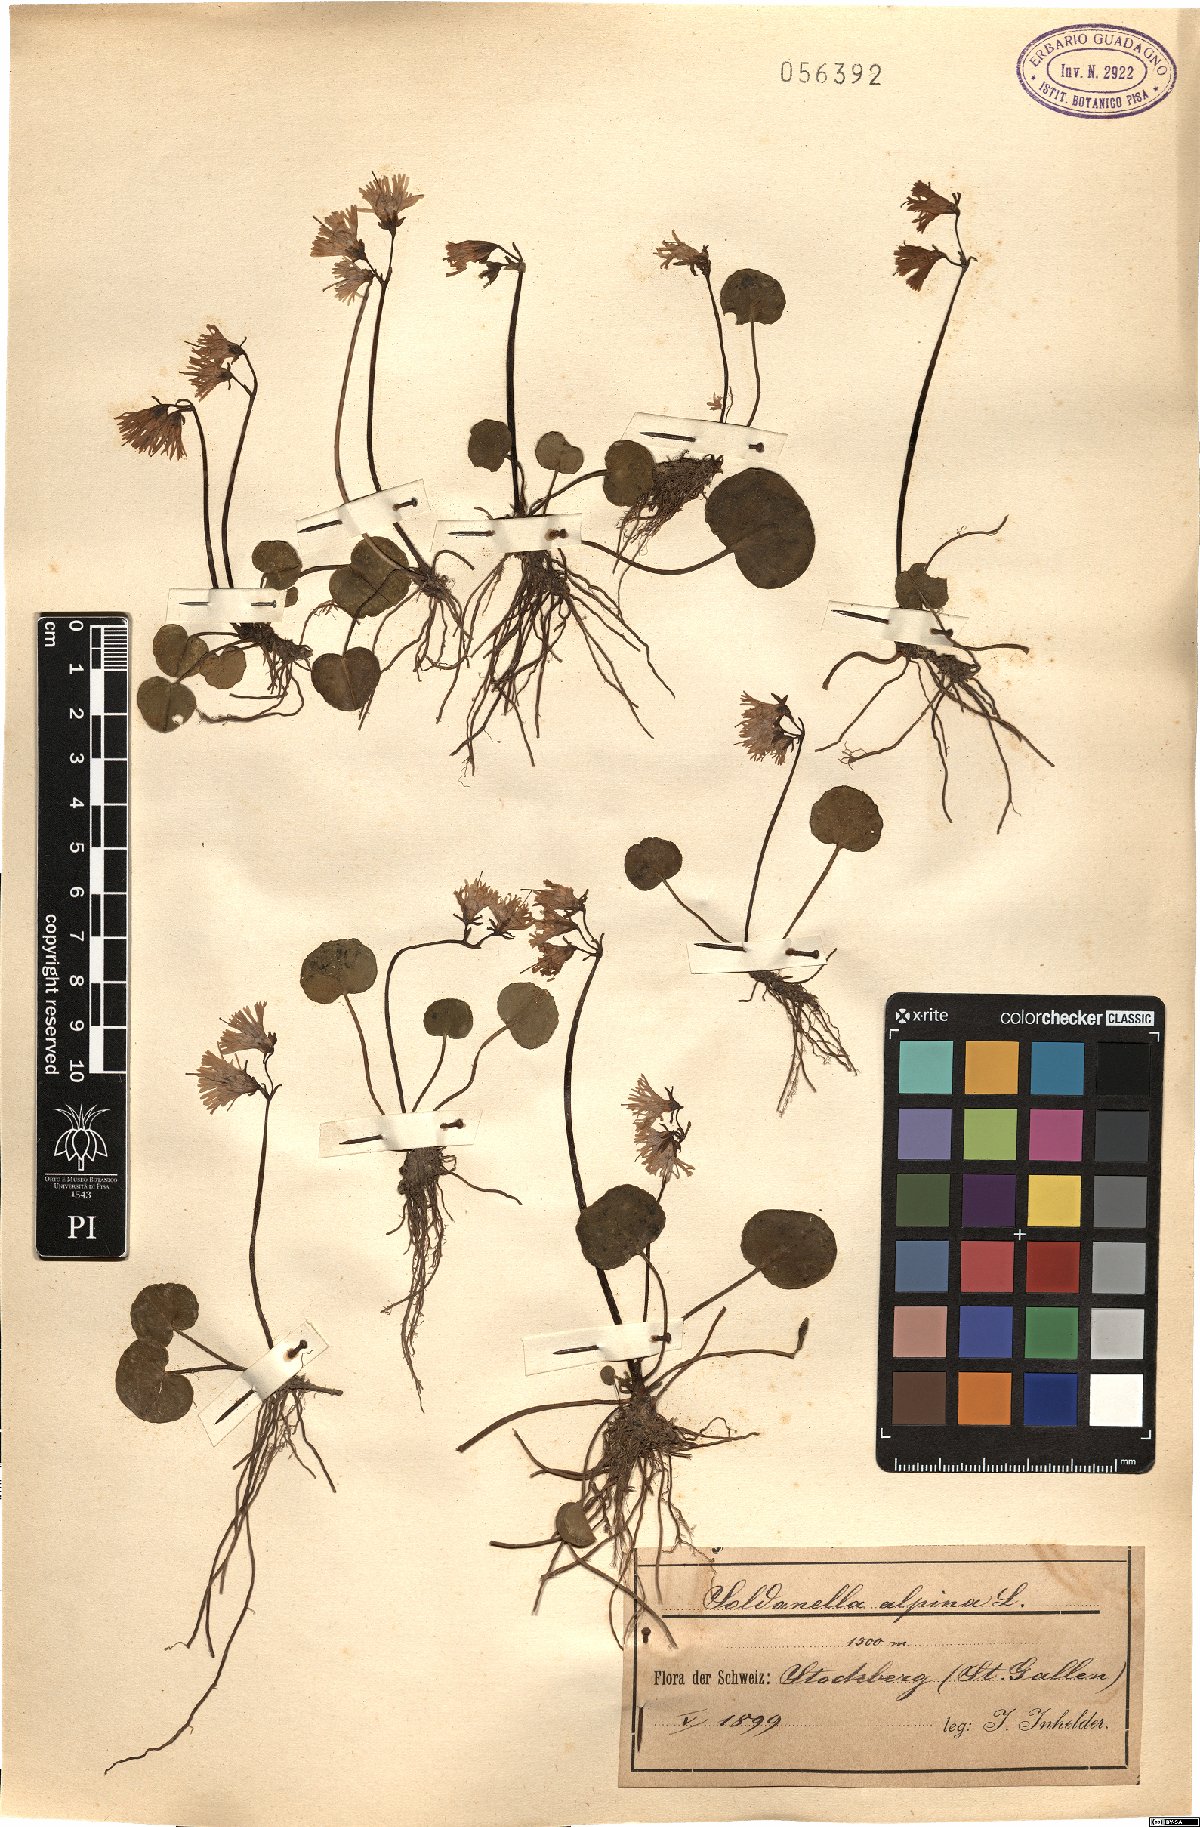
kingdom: Plantae
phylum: Tracheophyta
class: Magnoliopsida
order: Ericales
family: Primulaceae
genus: Soldanella
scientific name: Soldanella alpina
